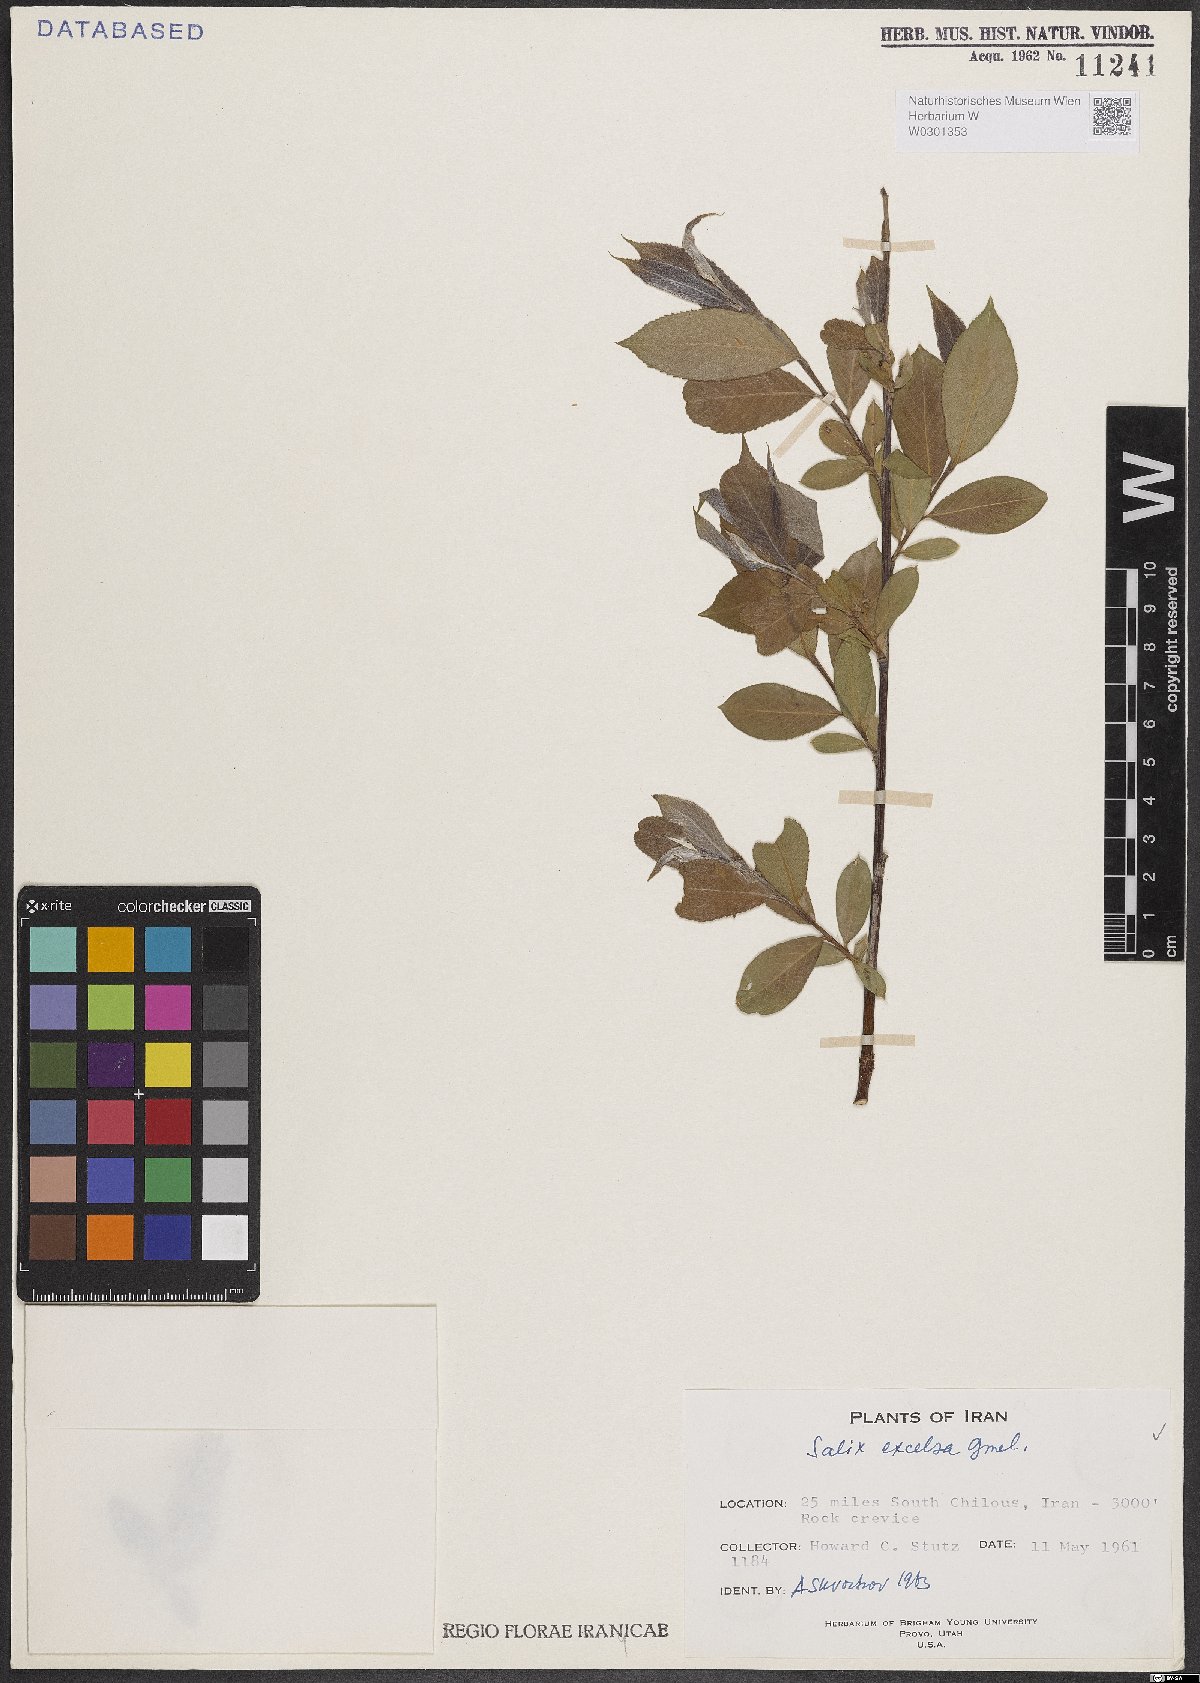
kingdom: Plantae
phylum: Tracheophyta
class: Magnoliopsida
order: Malpighiales
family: Salicaceae
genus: Salix
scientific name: Salix excelsa
